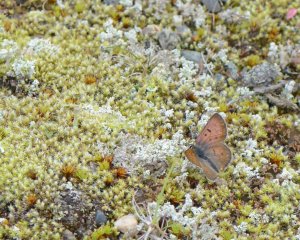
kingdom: Animalia
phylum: Arthropoda
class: Insecta
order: Lepidoptera
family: Lycaenidae
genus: Epidemia
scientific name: Epidemia dorcas
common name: Dorcas Copper
